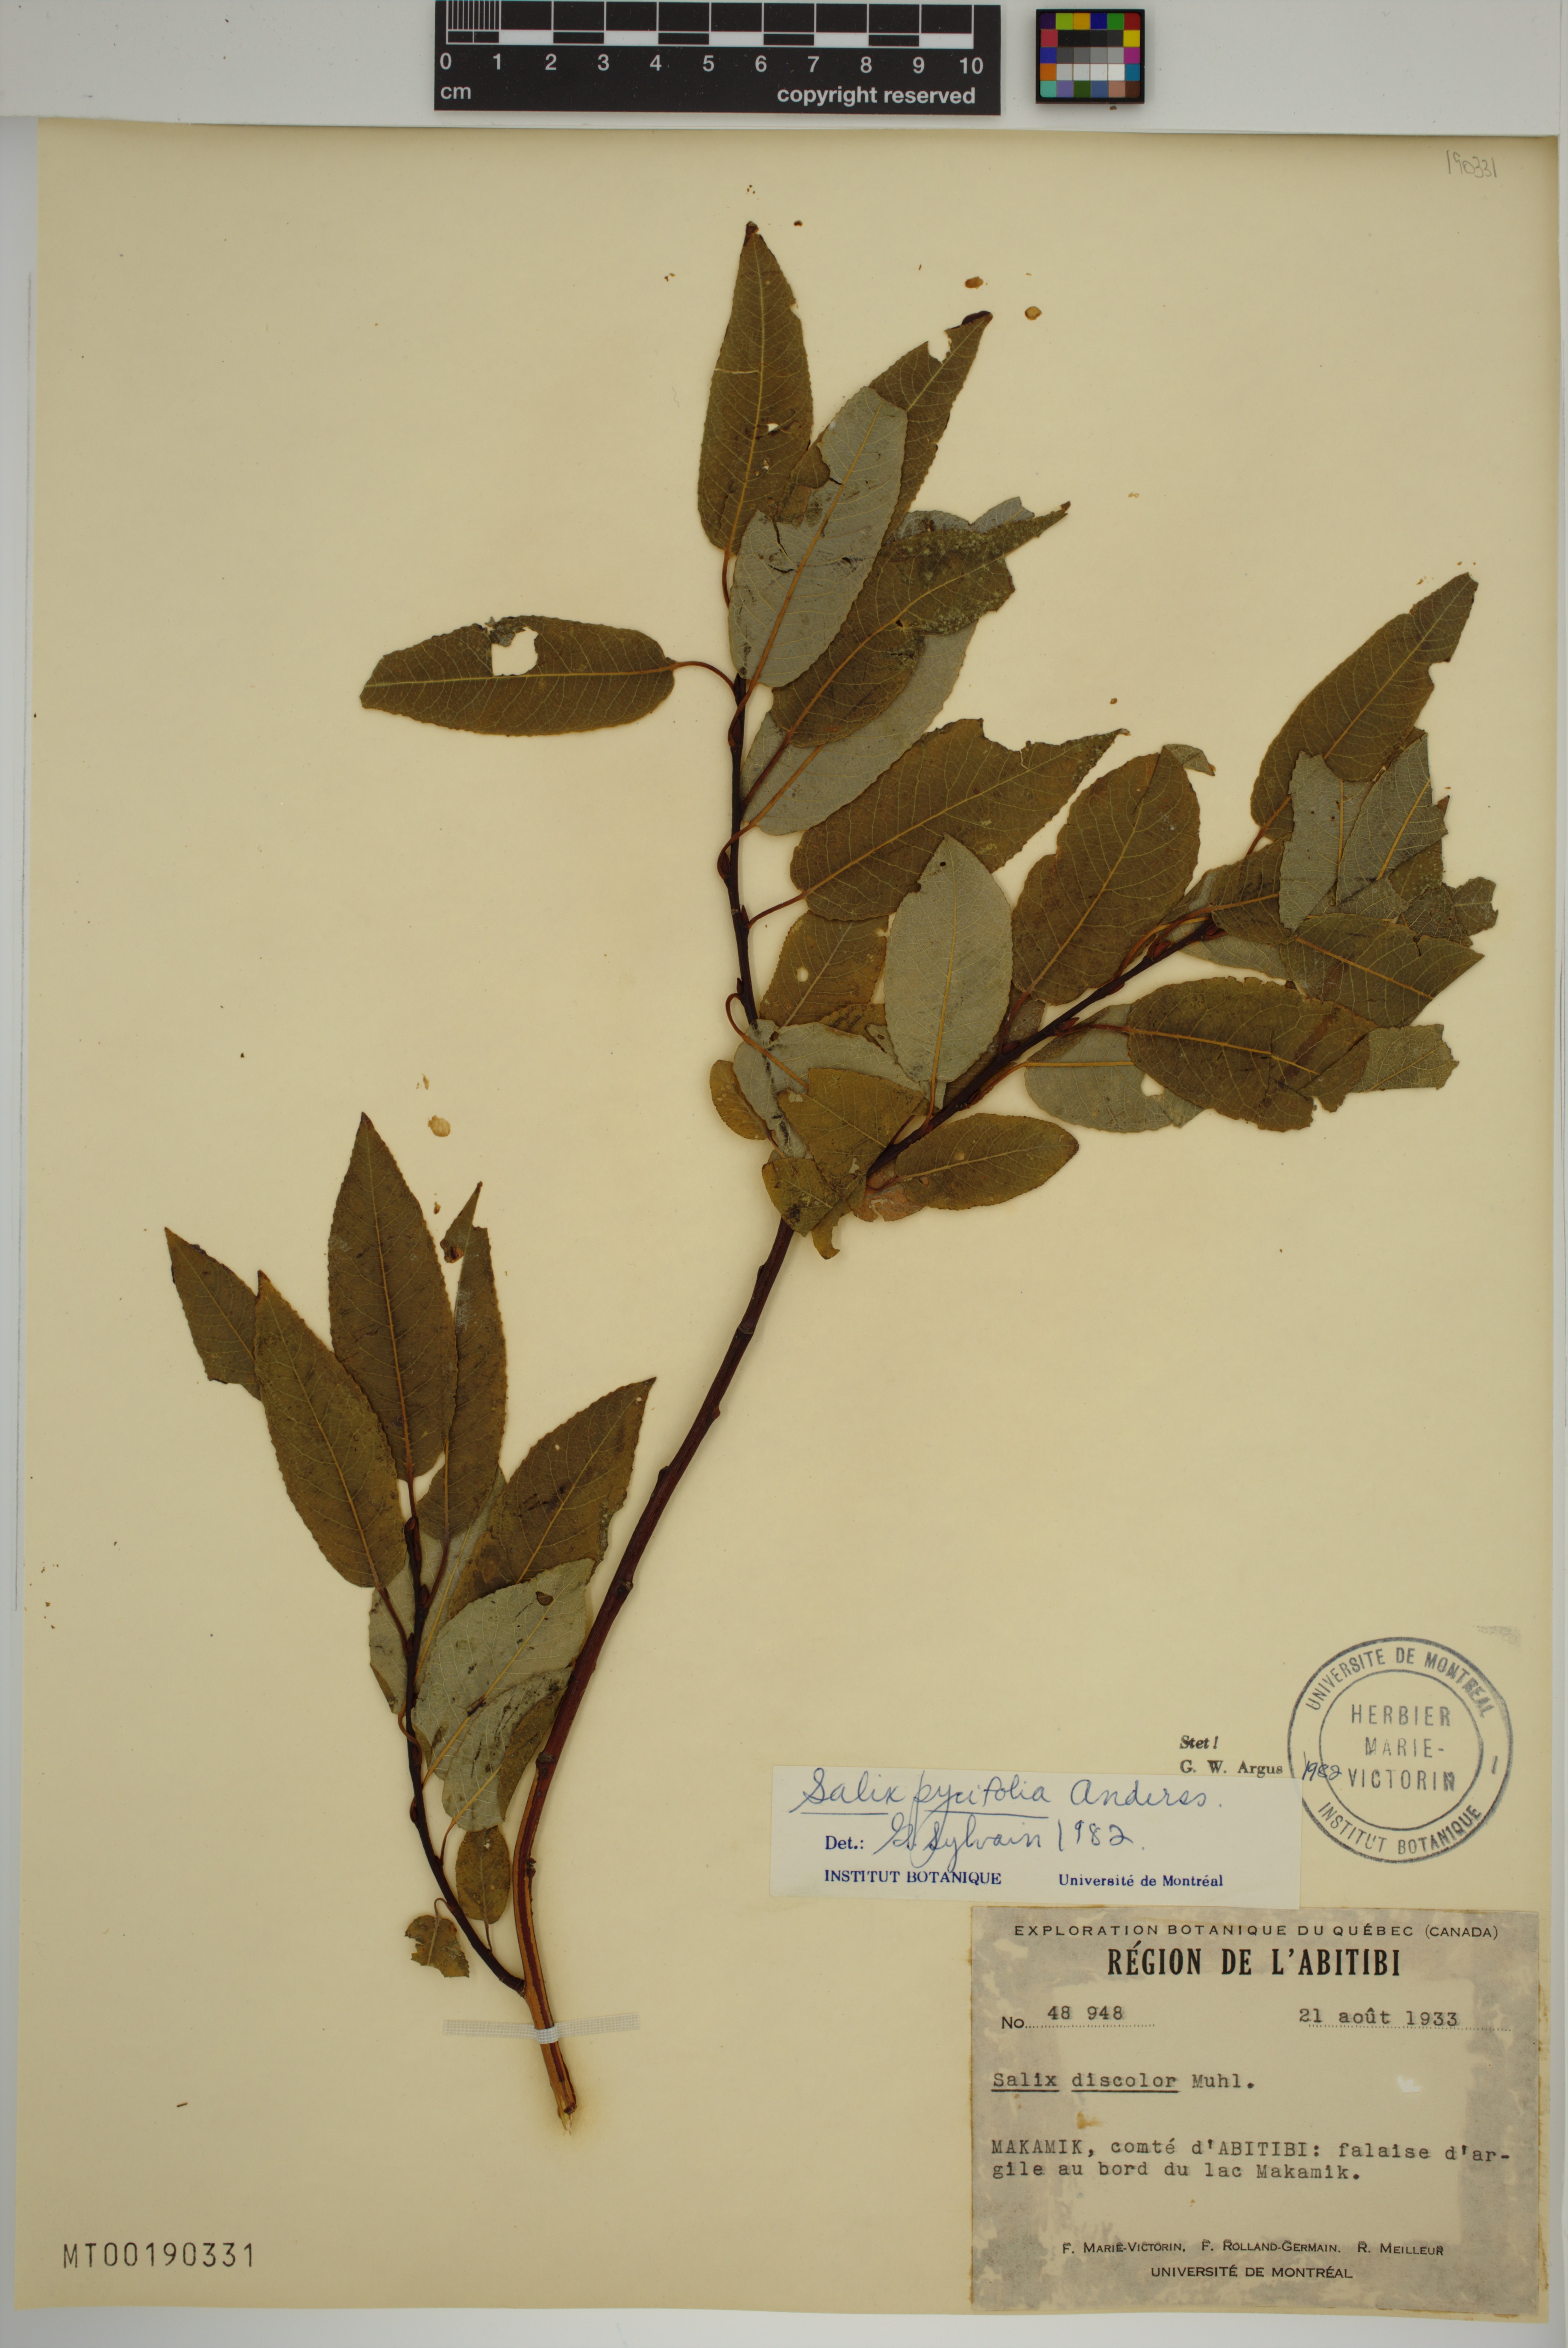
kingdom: Plantae
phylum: Tracheophyta
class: Magnoliopsida
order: Malpighiales
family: Salicaceae
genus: Salix
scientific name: Salix pyrifolia
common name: Balsam willow
